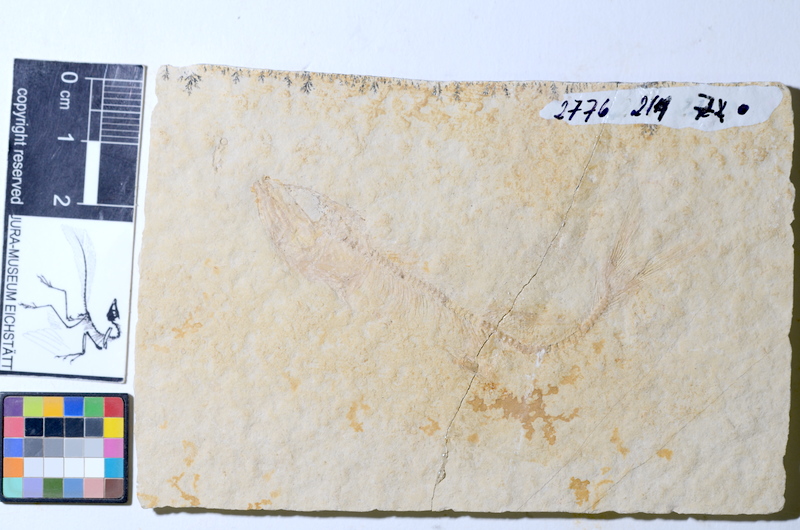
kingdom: Animalia
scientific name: Animalia
